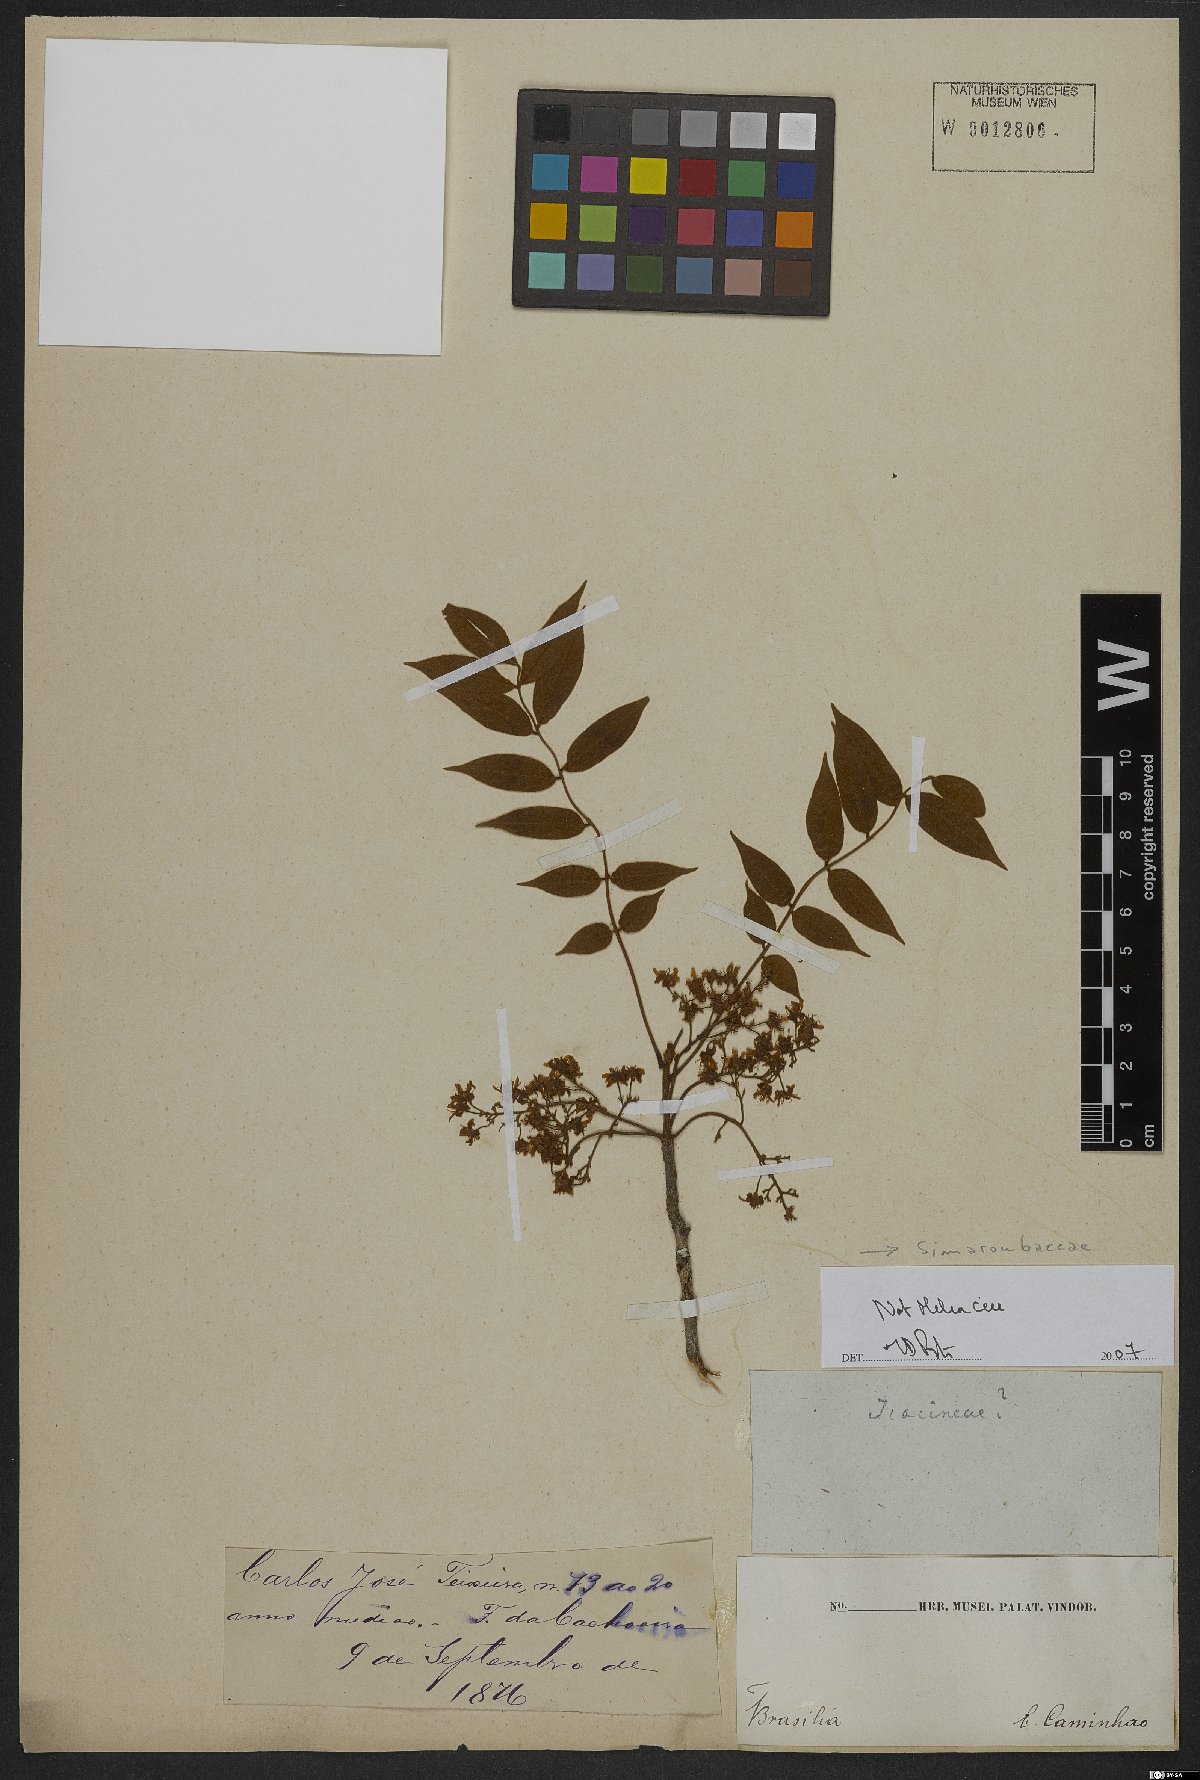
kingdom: Plantae
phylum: Tracheophyta
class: Magnoliopsida
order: Sapindales
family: Simaroubaceae
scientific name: Simaroubaceae
